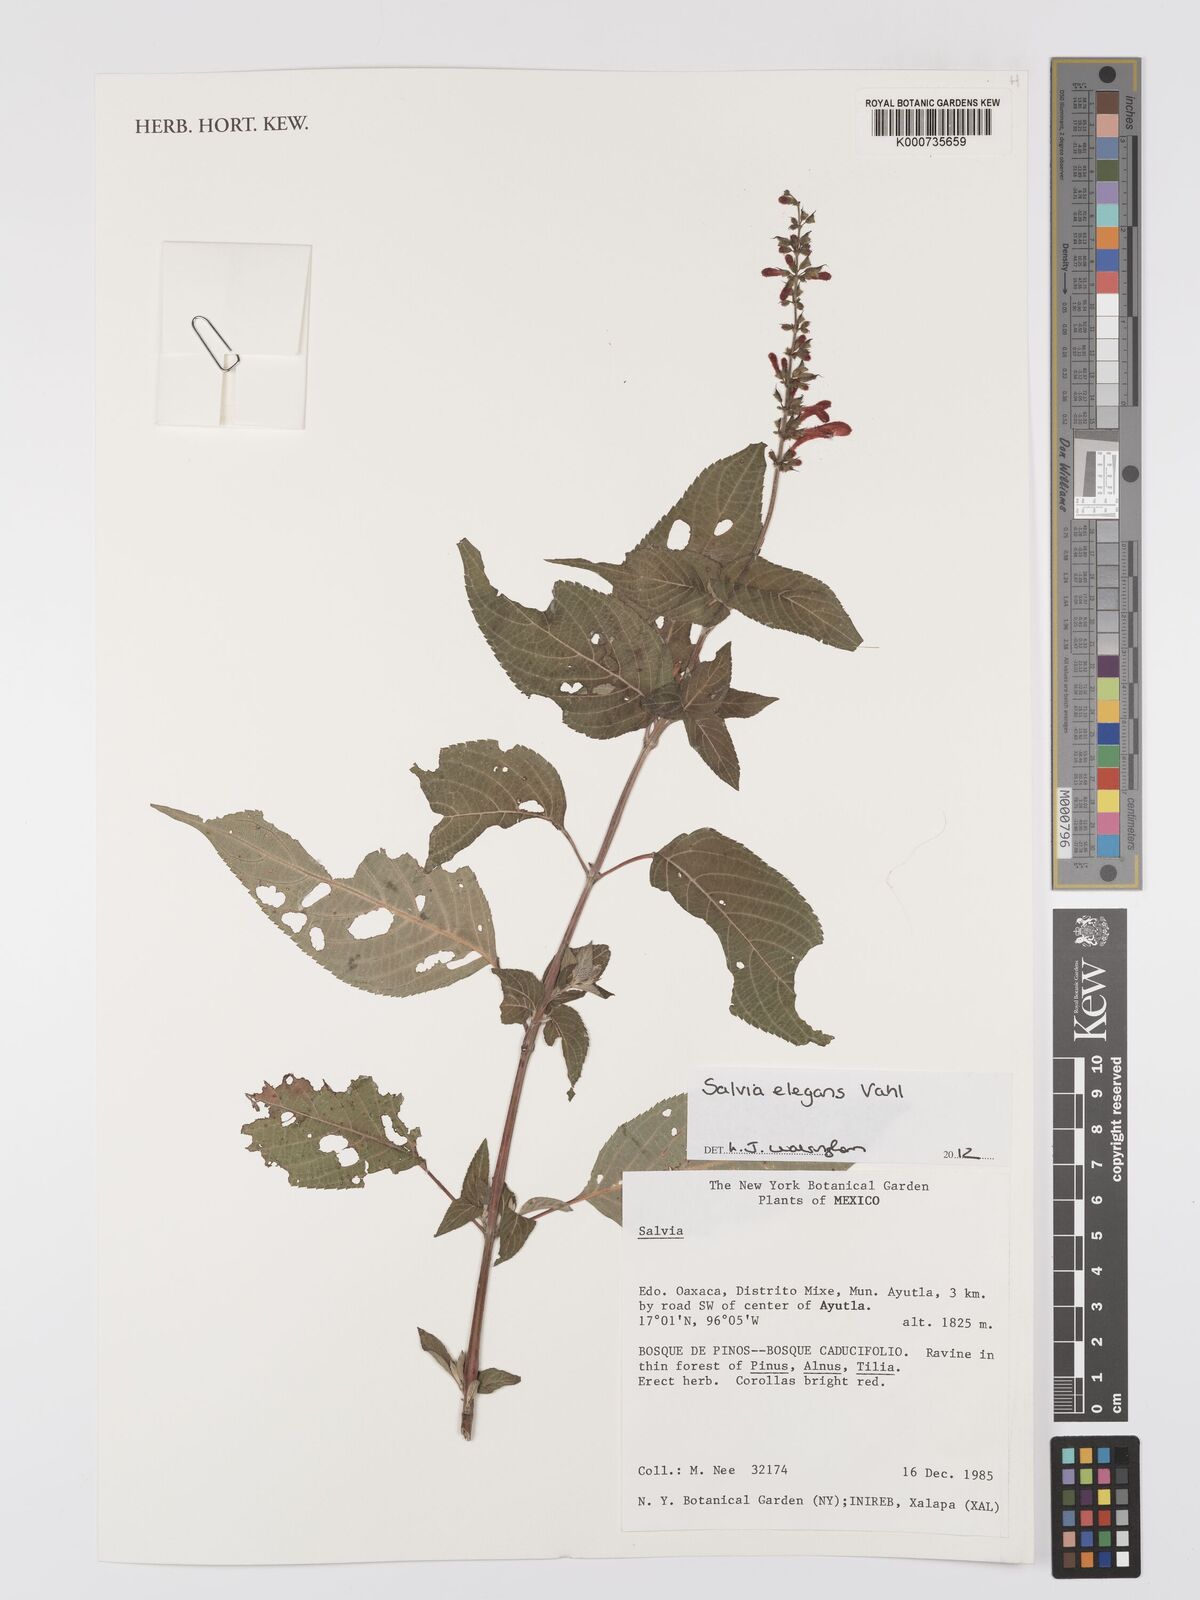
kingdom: Plantae
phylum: Tracheophyta
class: Magnoliopsida
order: Lamiales
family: Lamiaceae
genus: Salvia
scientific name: Salvia elegans
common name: Pineapple sage
